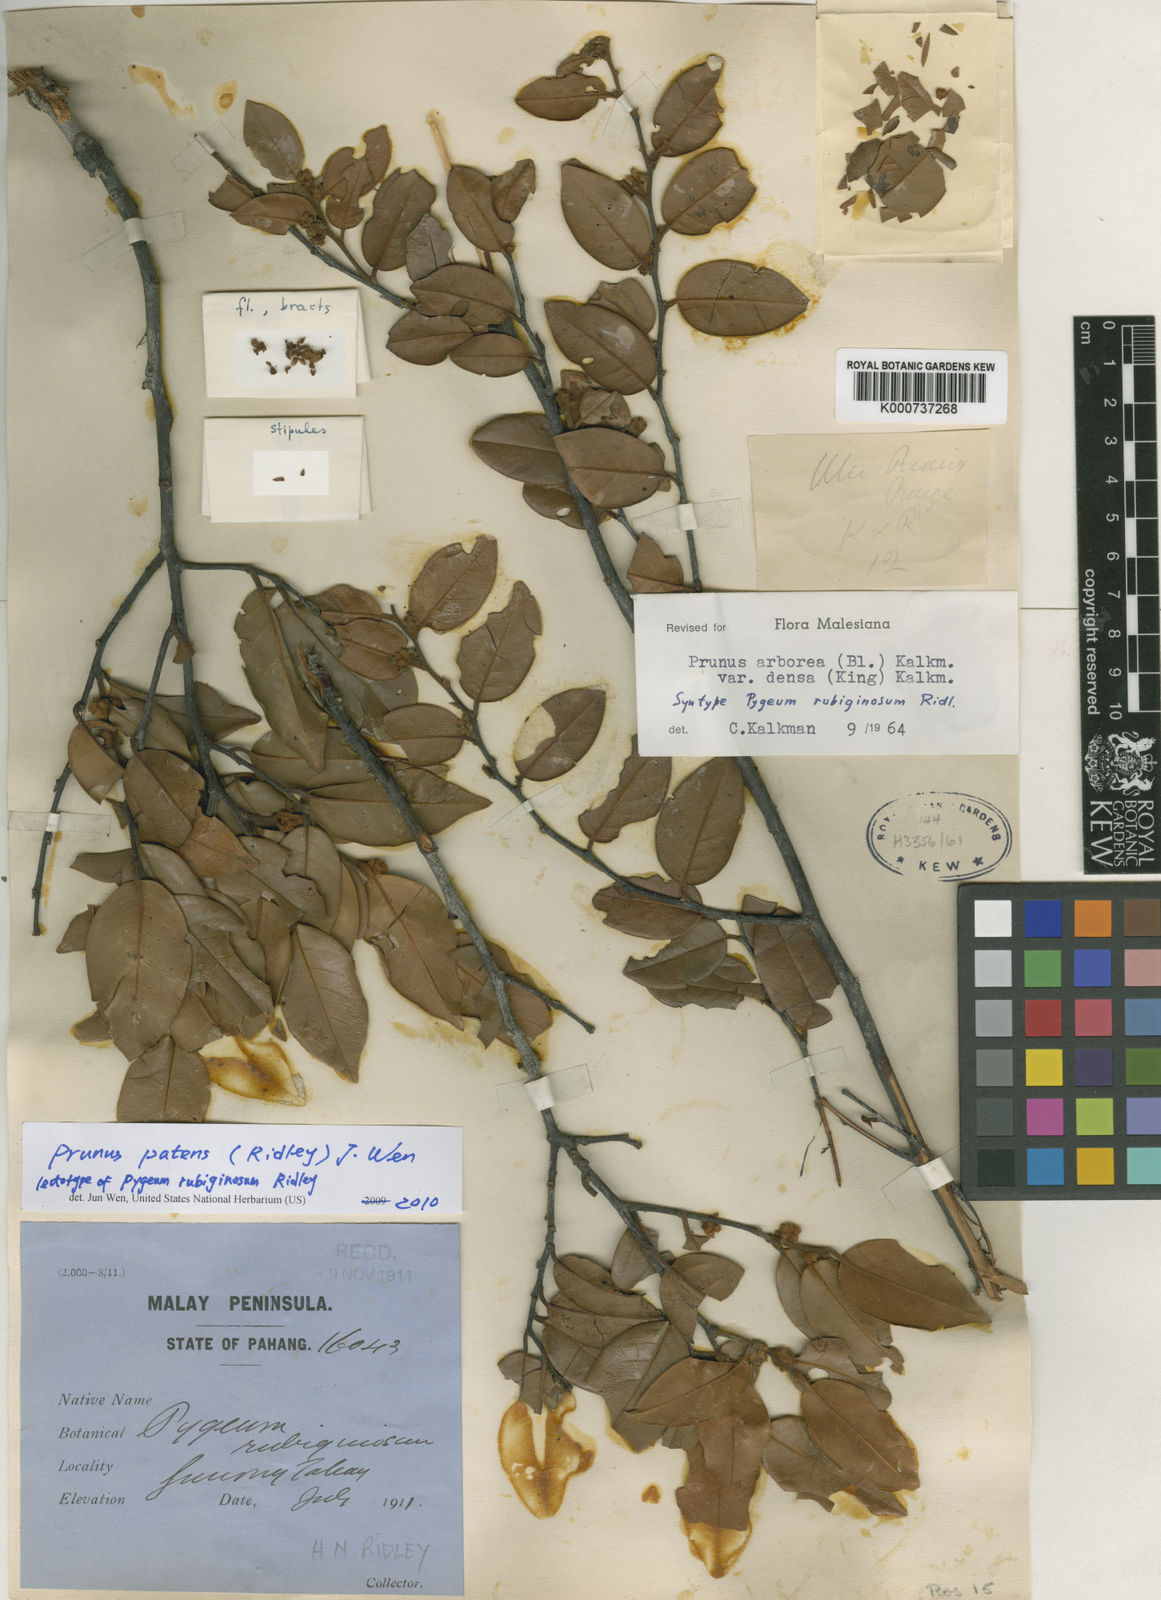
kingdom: Plantae
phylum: Tracheophyta
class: Magnoliopsida
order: Rosales
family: Rosaceae
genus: Prunus
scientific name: Prunus
